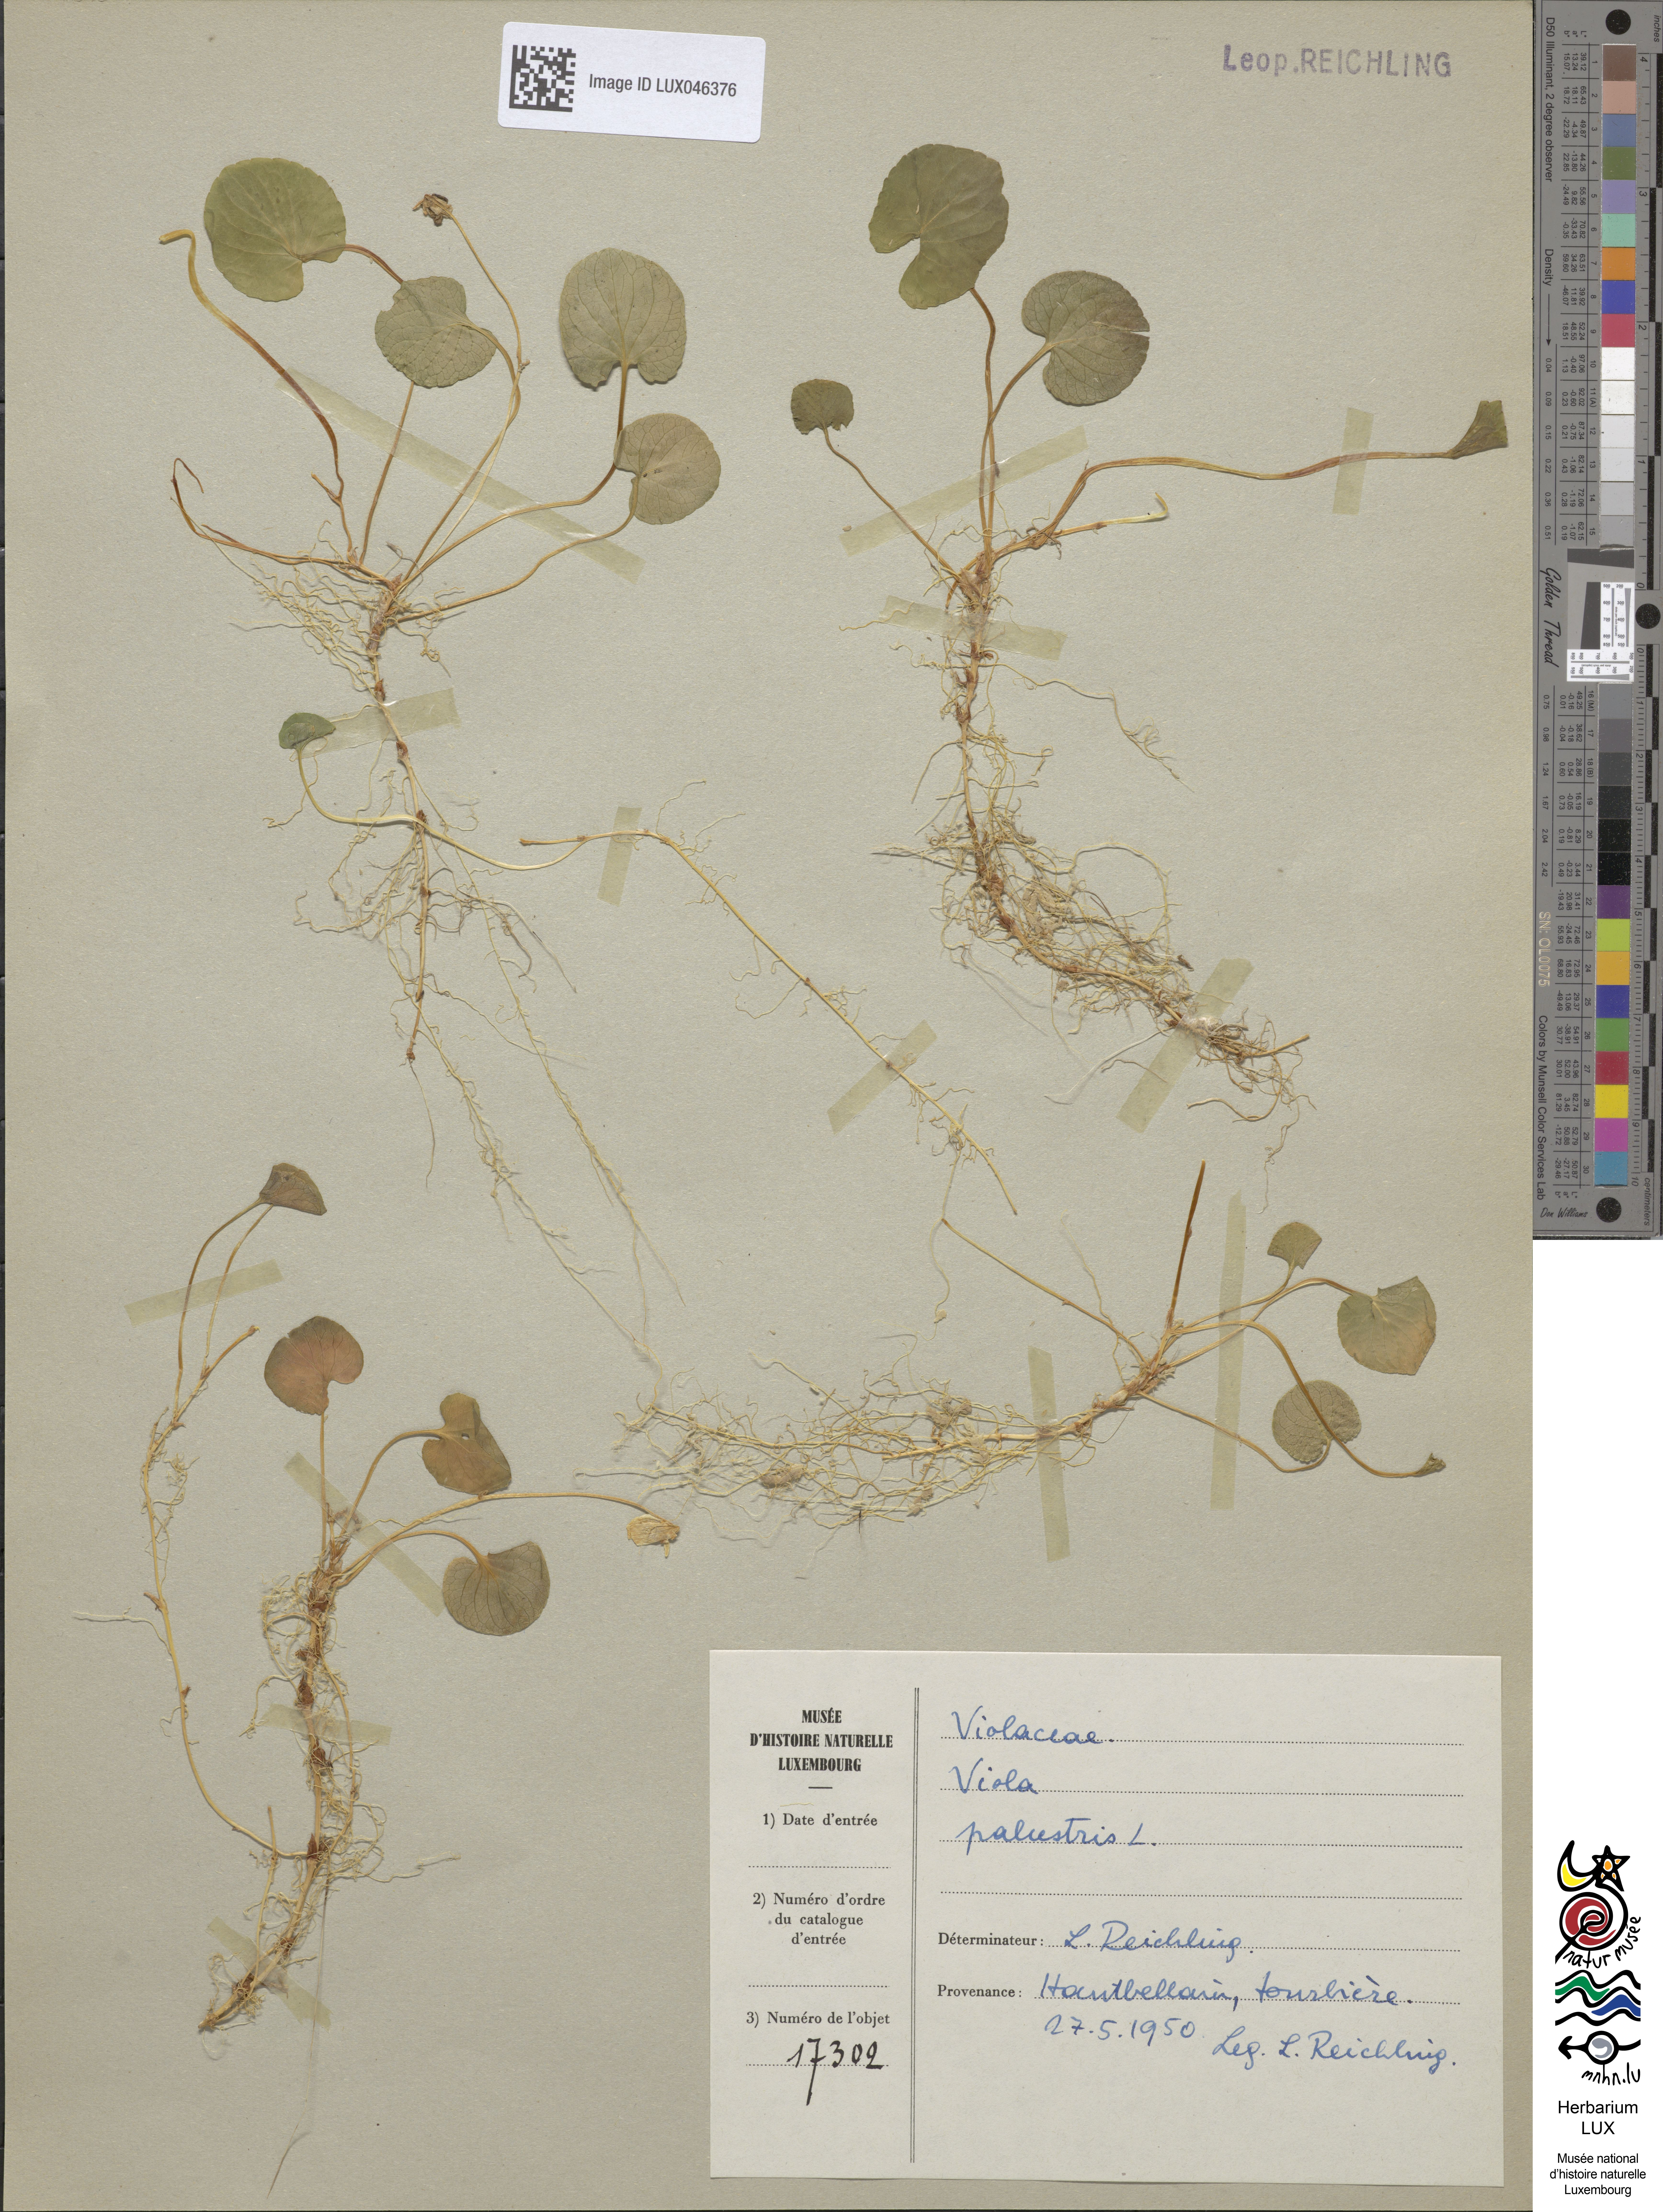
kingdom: Plantae
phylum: Tracheophyta
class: Magnoliopsida
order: Malpighiales
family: Violaceae
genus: Viola
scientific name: Viola palustris
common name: Marsh violet
